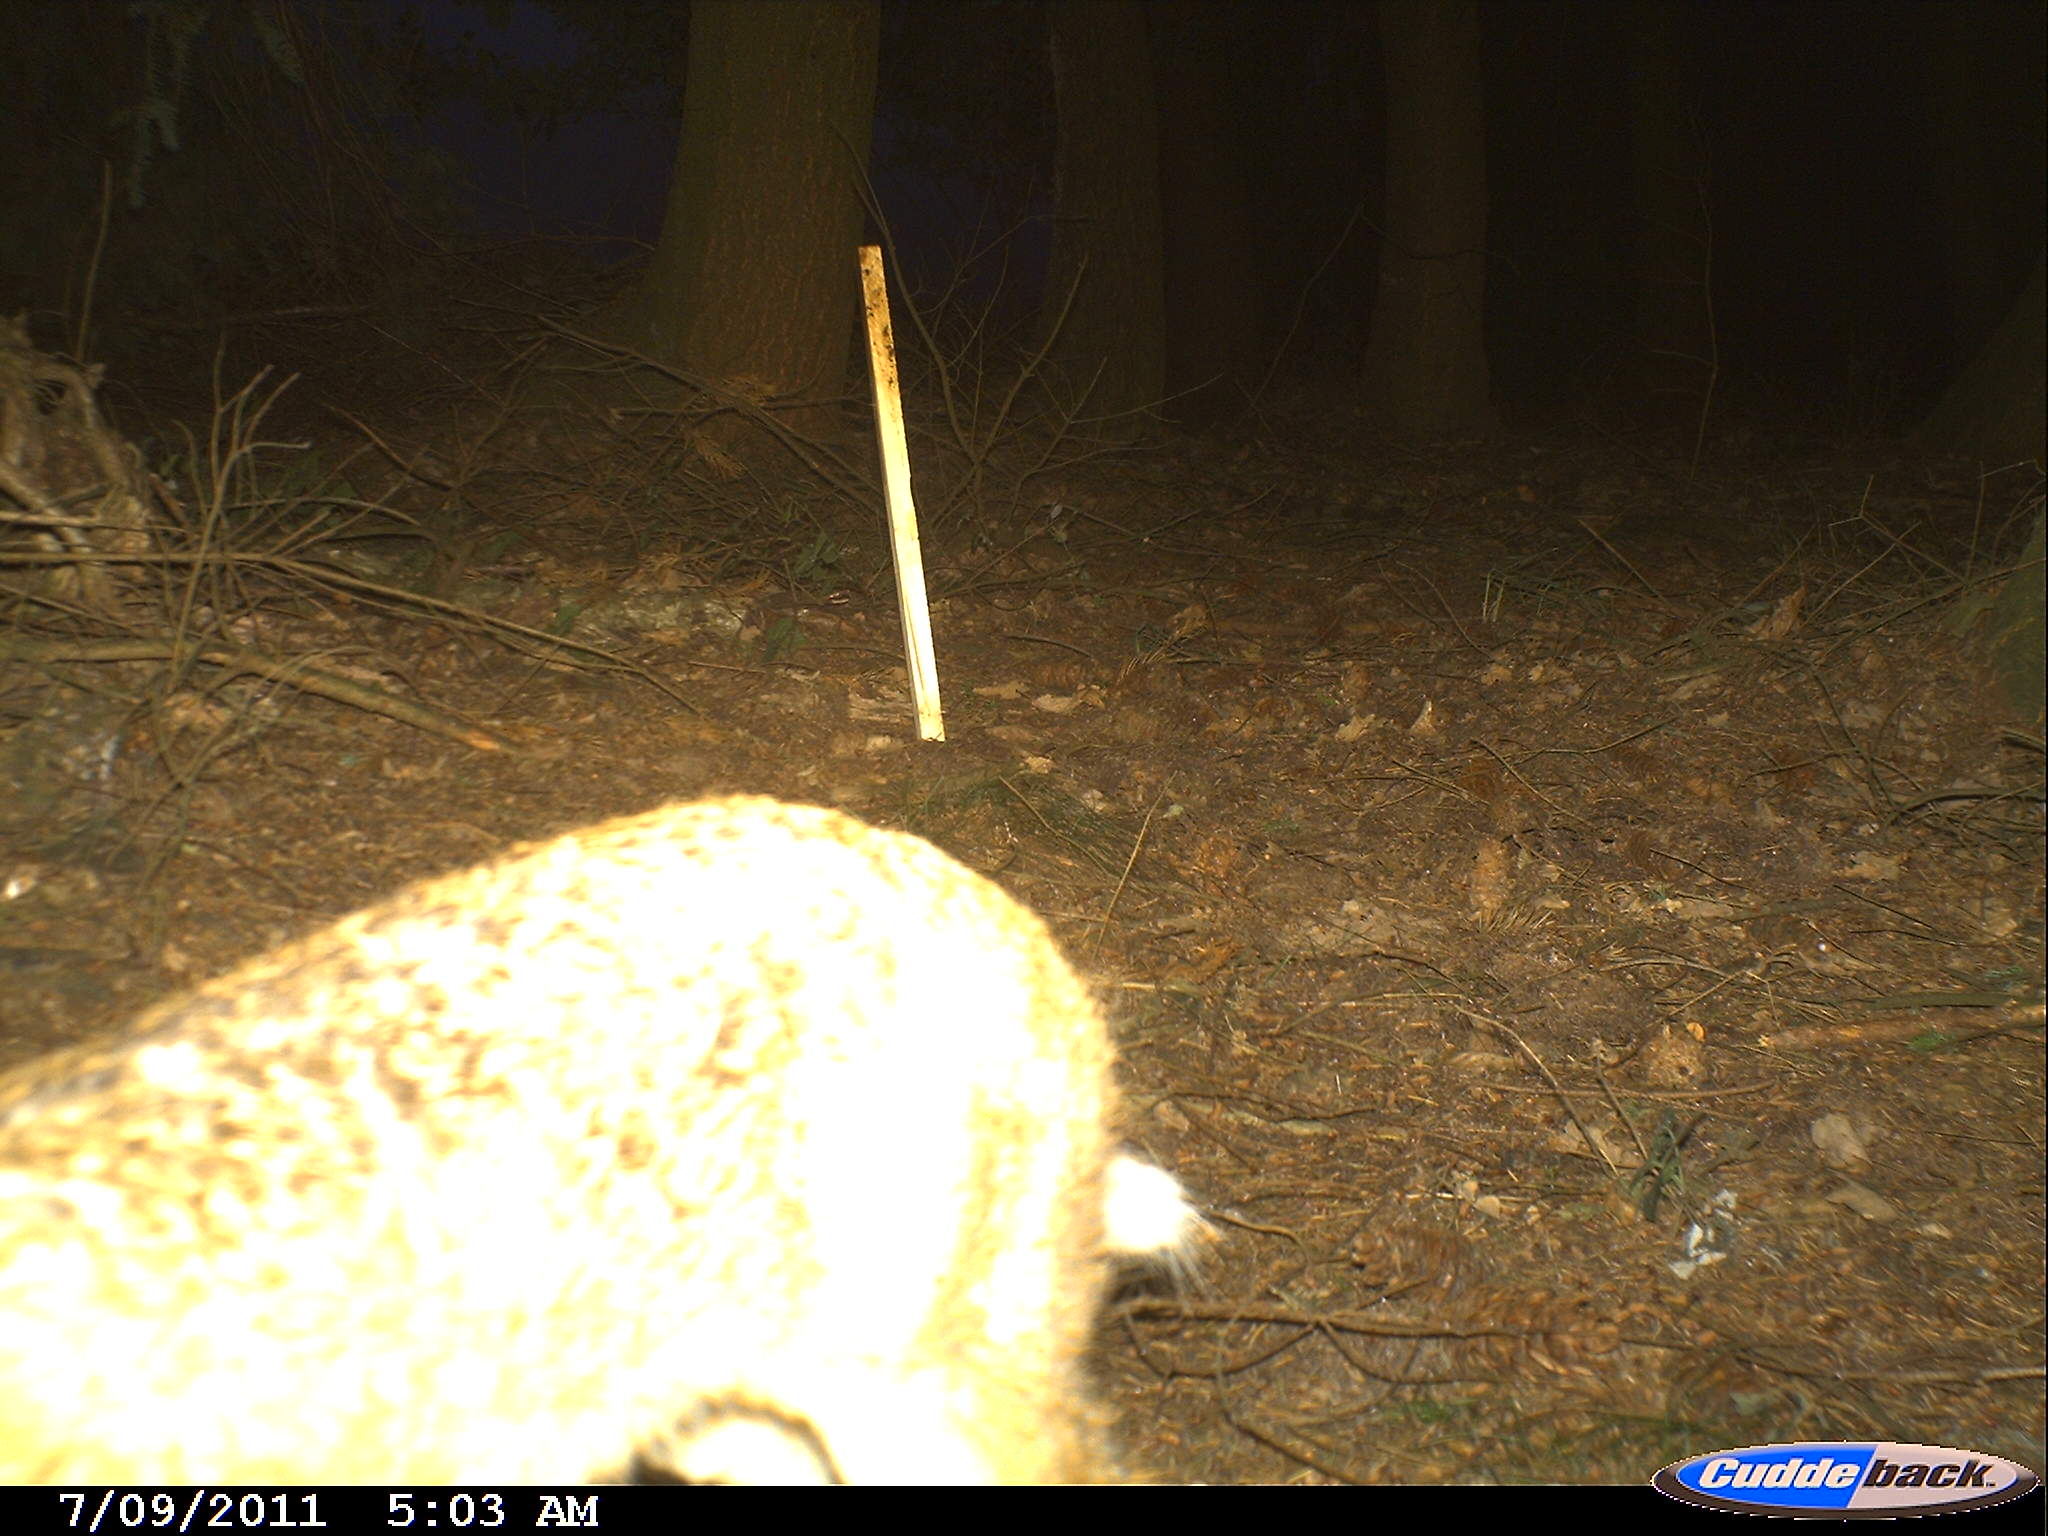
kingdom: Animalia
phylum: Chordata
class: Mammalia
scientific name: Mammalia
